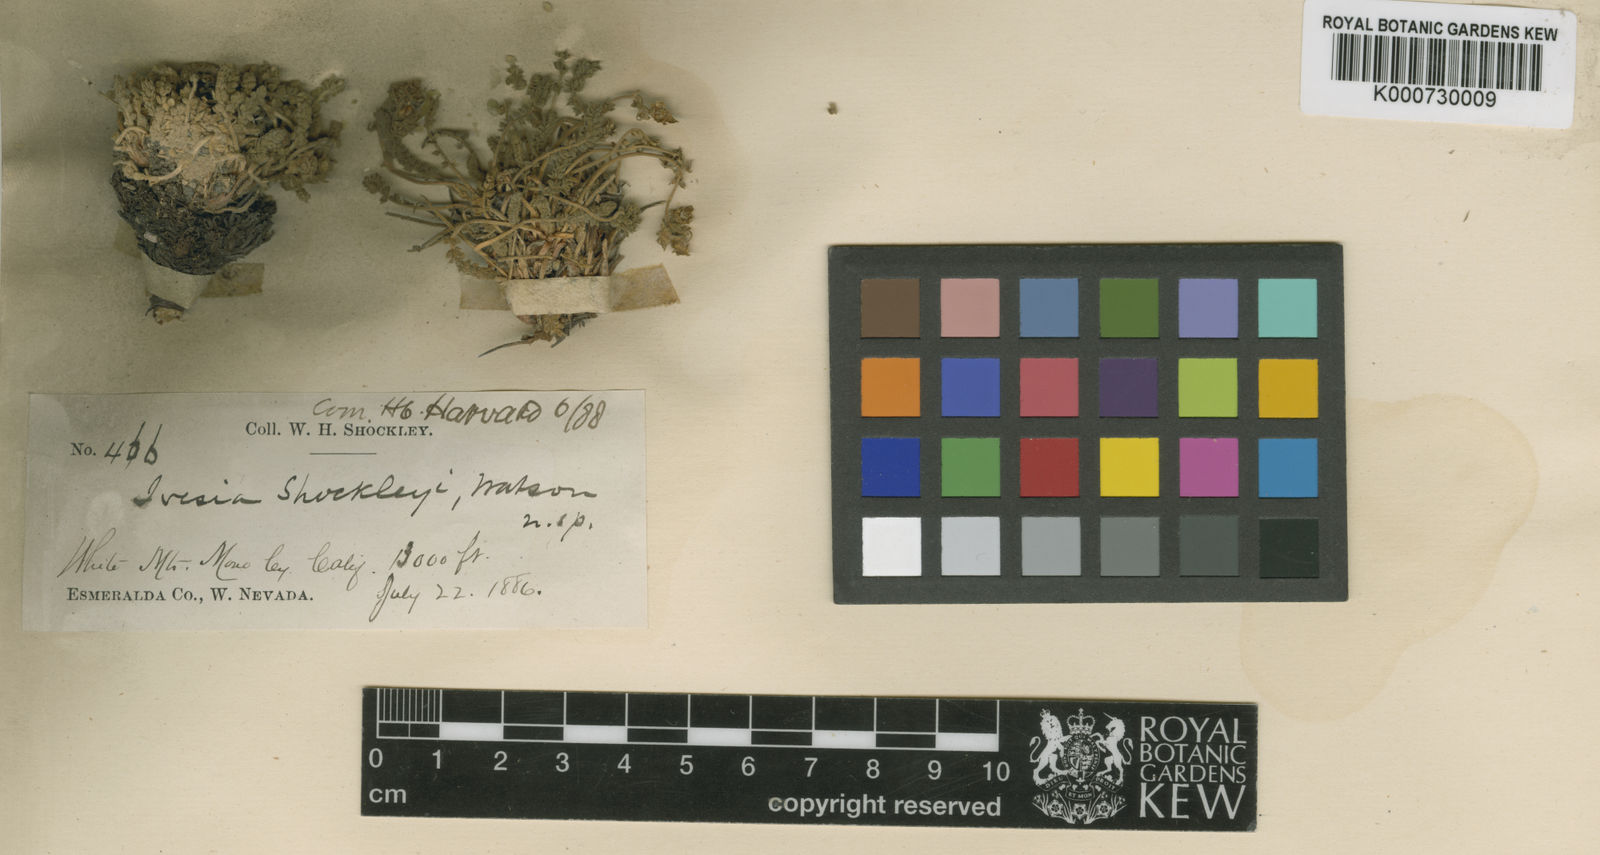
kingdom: Plantae
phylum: Tracheophyta
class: Magnoliopsida
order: Rosales
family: Rosaceae
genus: Potentilla
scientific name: Potentilla shockleyi
